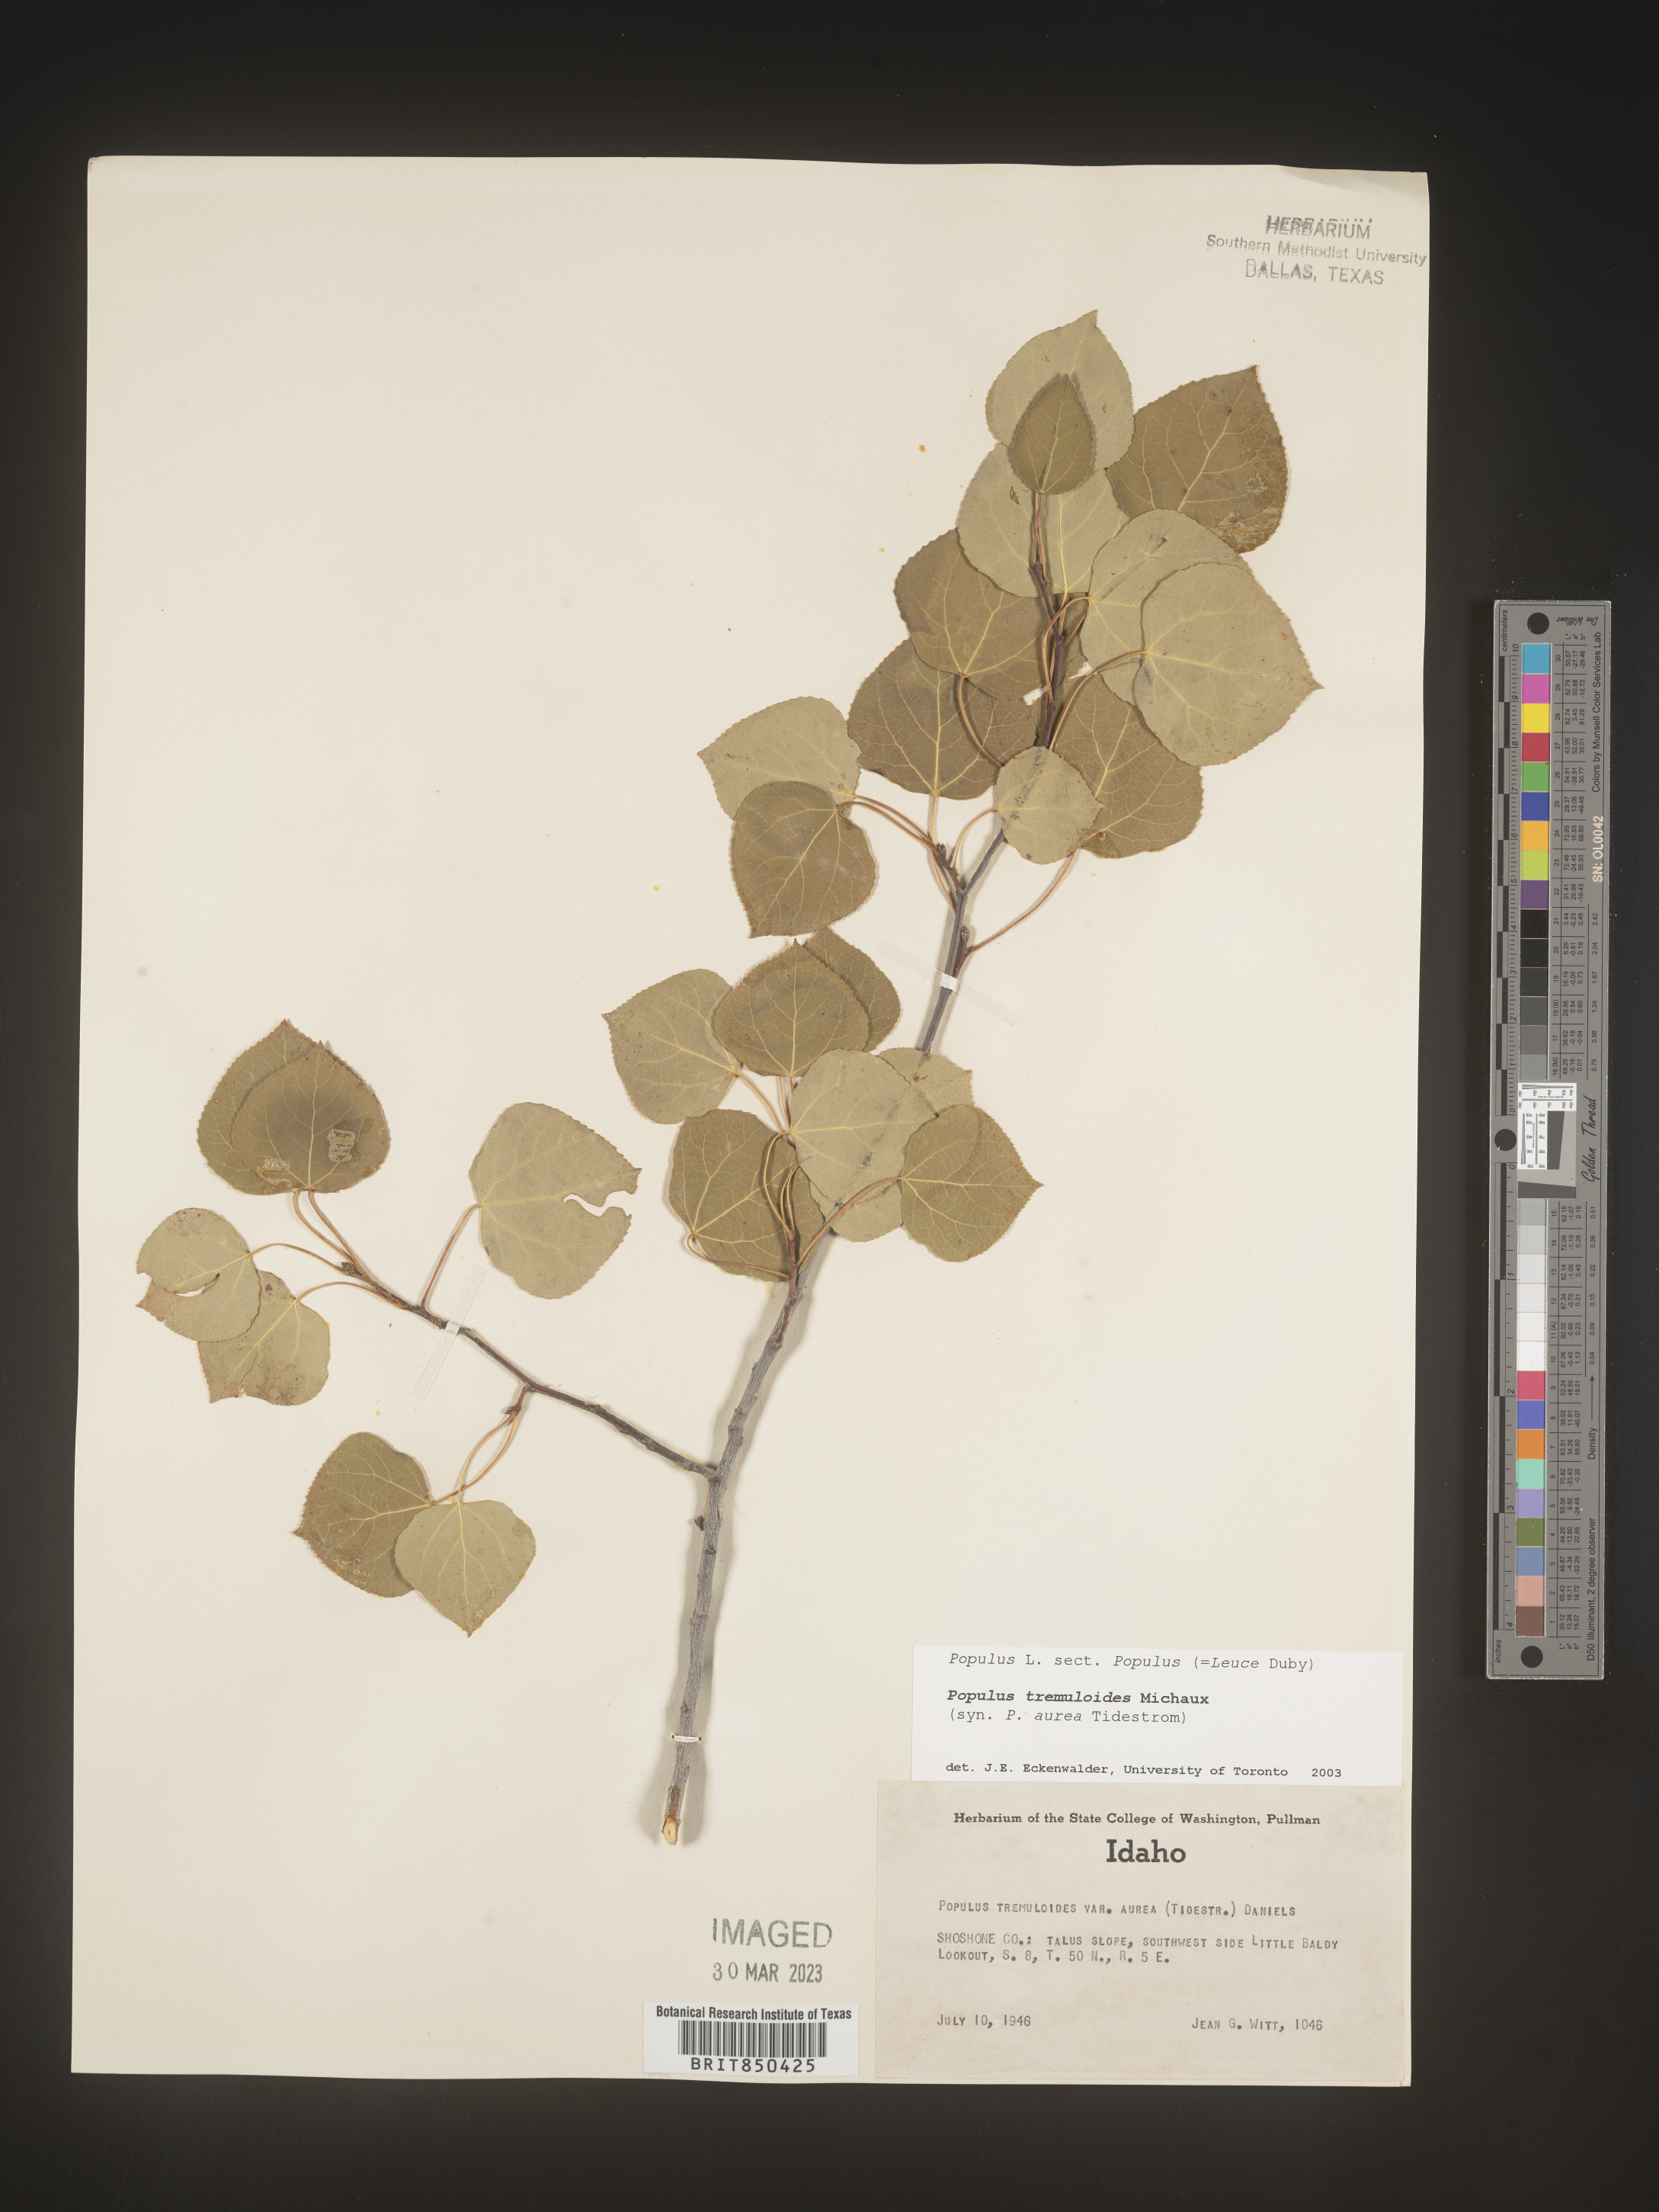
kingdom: Plantae
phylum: Tracheophyta
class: Magnoliopsida
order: Malpighiales
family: Salicaceae
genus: Populus
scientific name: Populus tremuloides
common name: Quaking aspen
